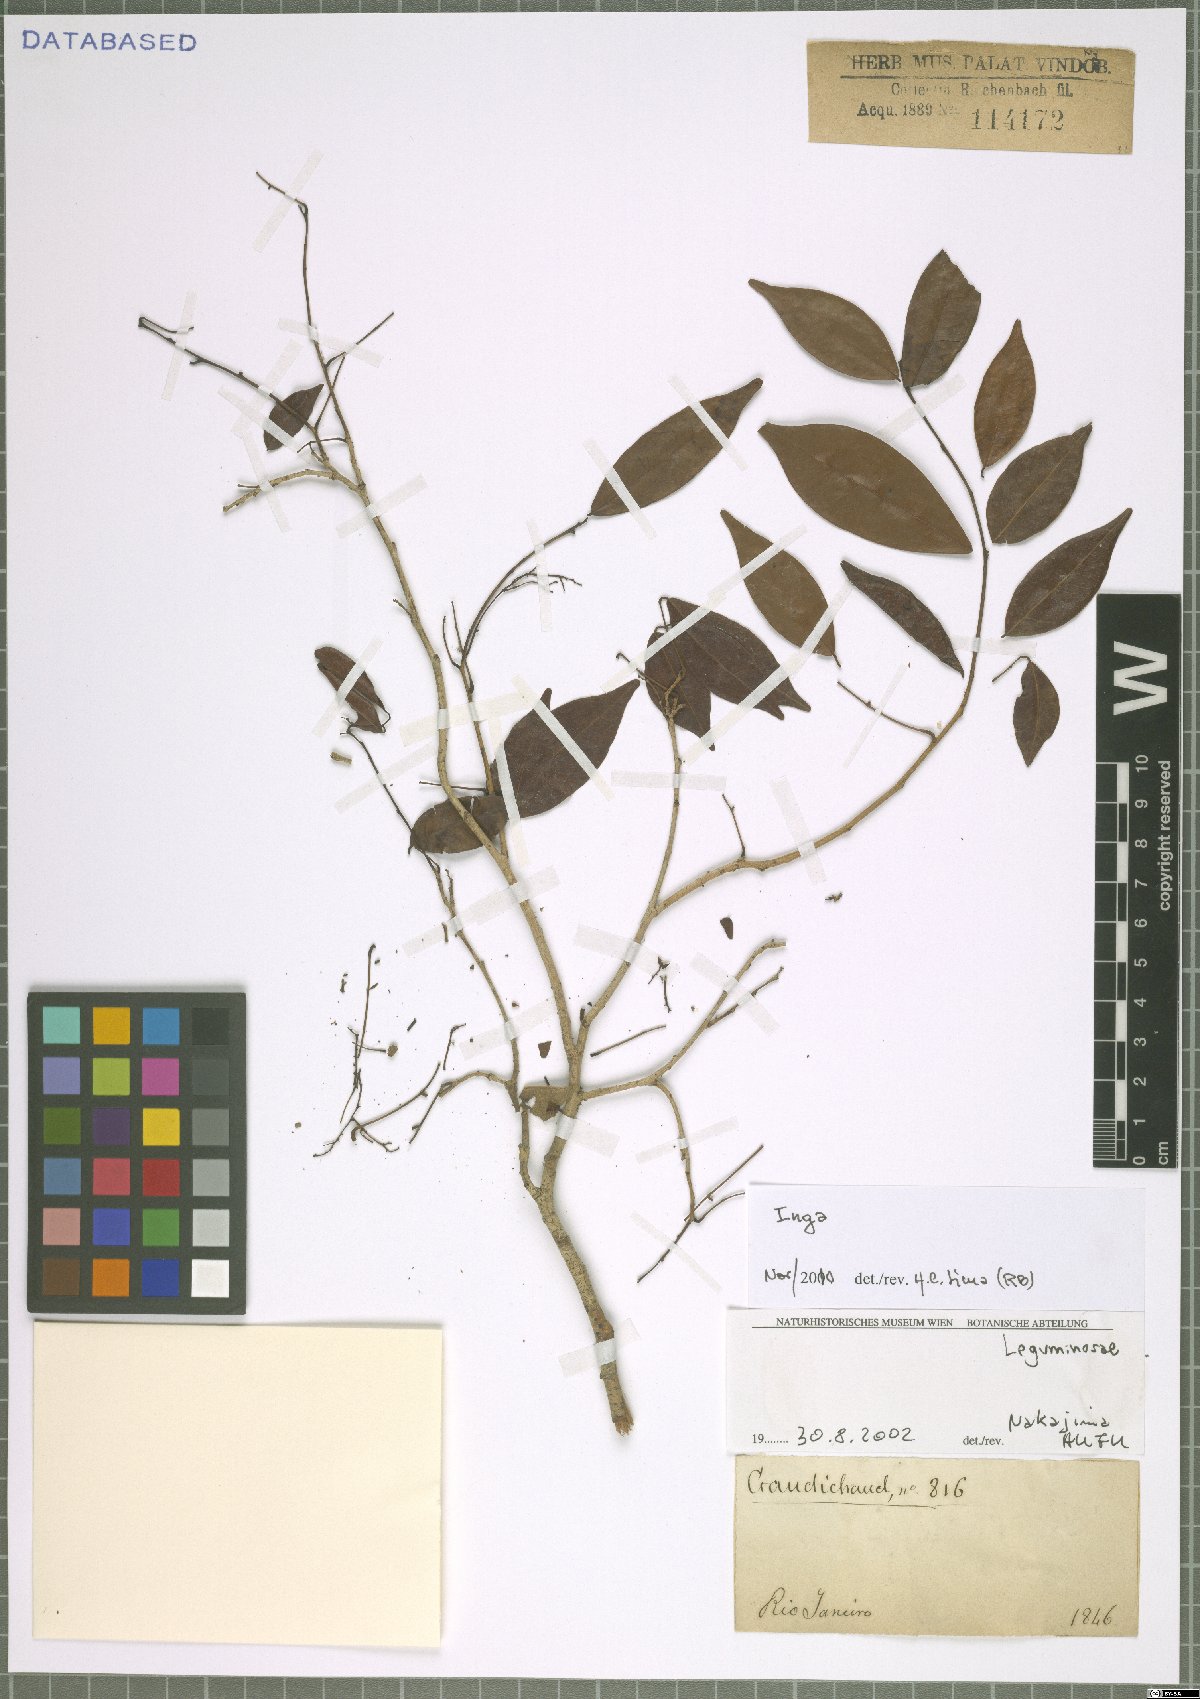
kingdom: Plantae
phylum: Tracheophyta
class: Magnoliopsida
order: Fabales
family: Fabaceae
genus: Inga
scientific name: Inga
